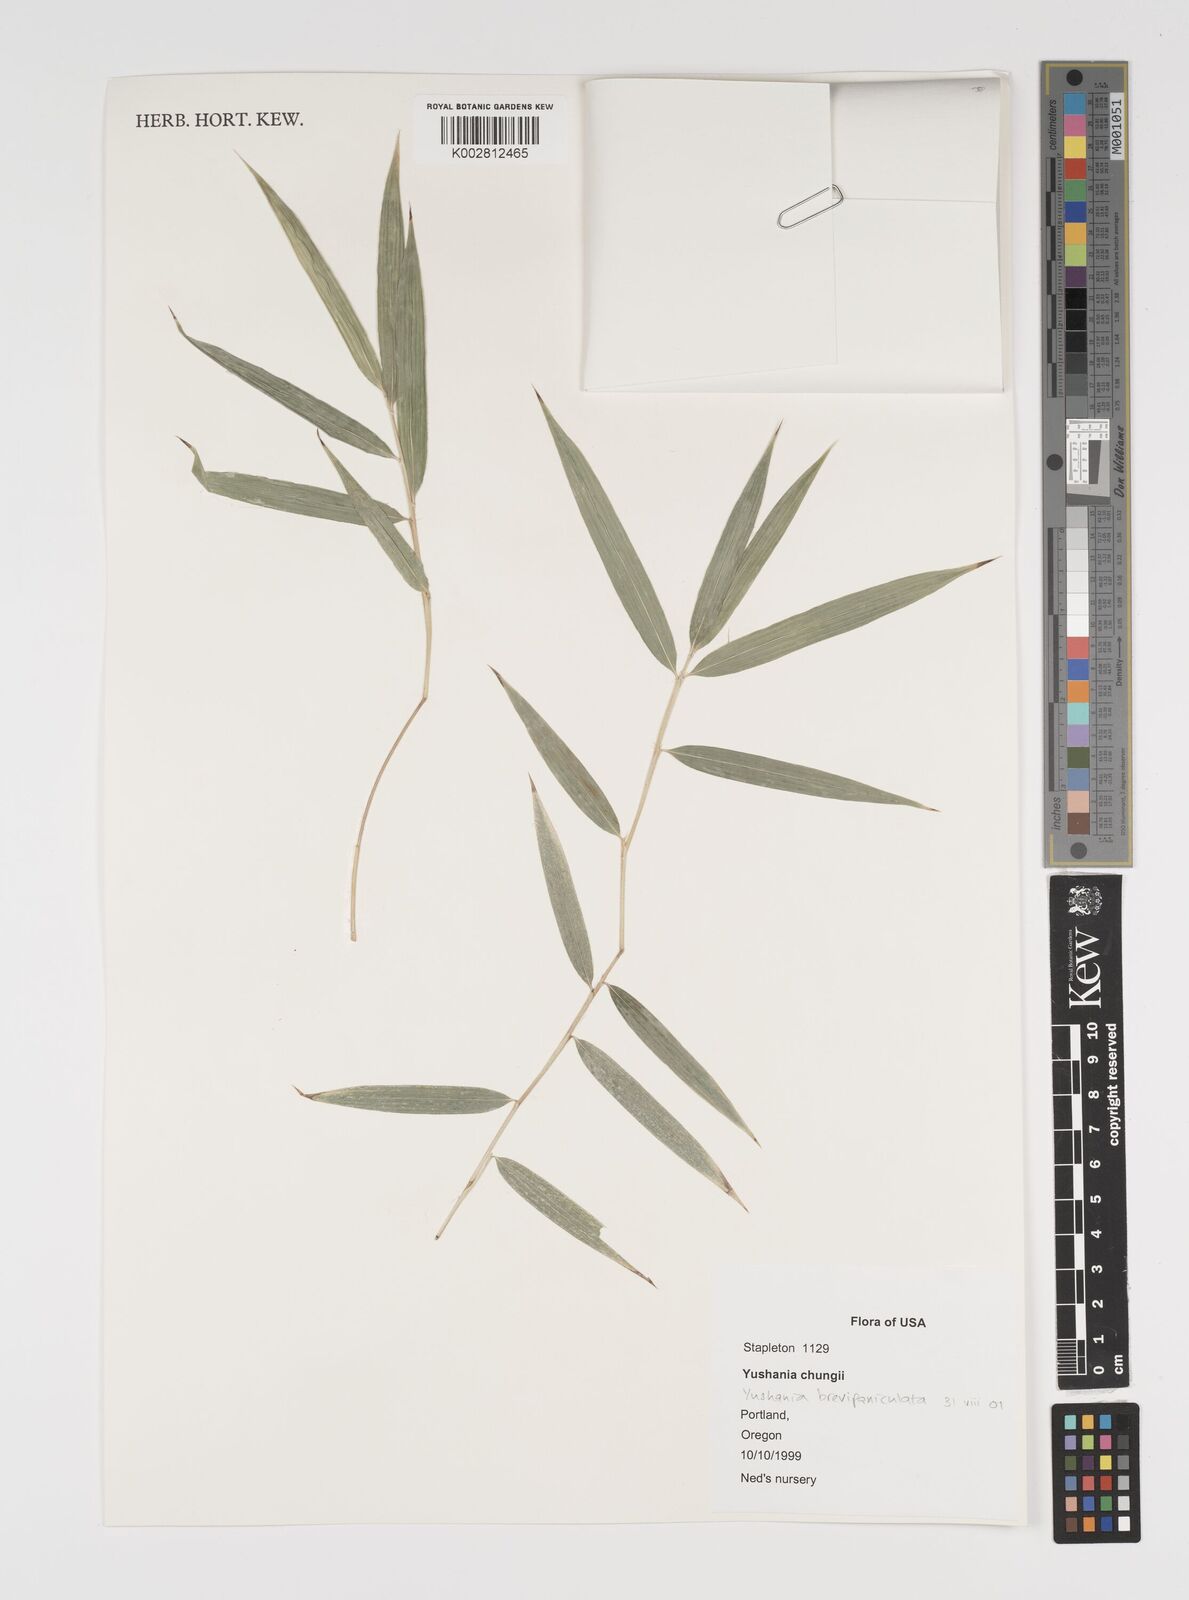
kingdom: Plantae
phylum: Tracheophyta
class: Liliopsida
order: Poales
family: Poaceae
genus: Yushania
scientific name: Yushania brevipaniculata
